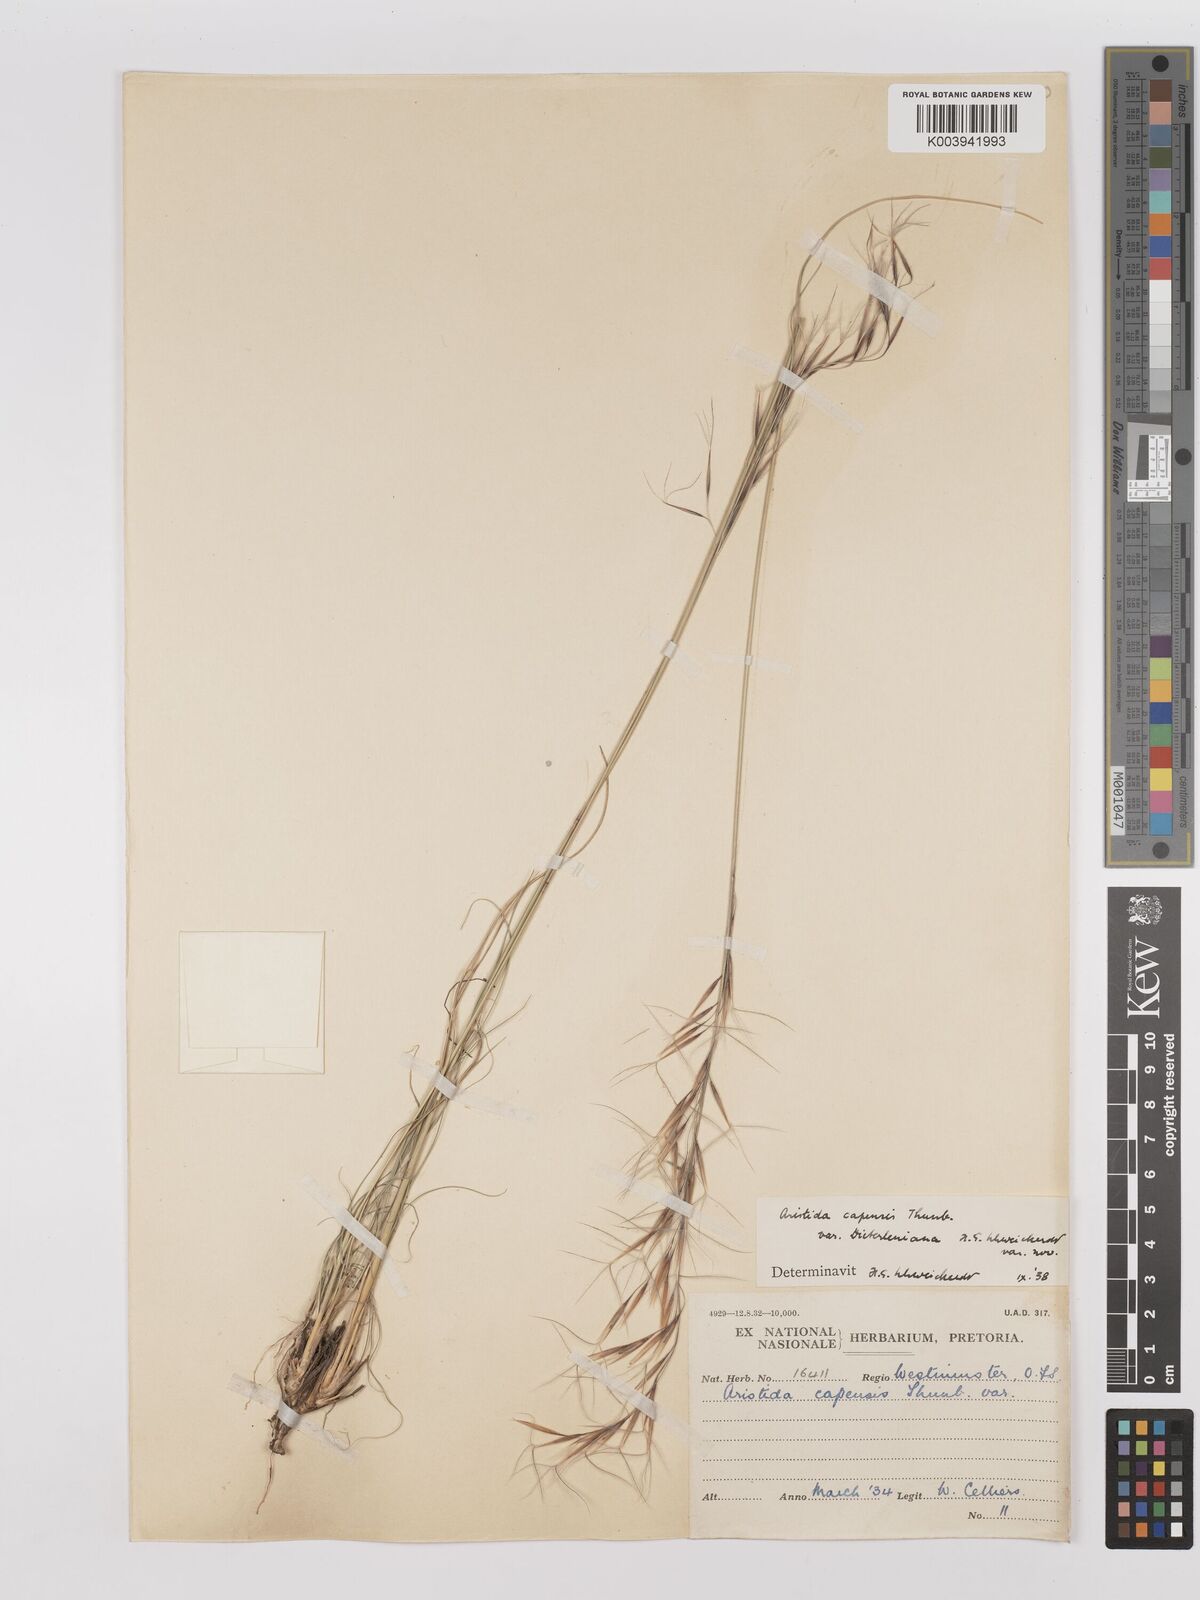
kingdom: Plantae
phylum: Tracheophyta
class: Liliopsida
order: Poales
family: Poaceae
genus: Stipagrostis
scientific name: Stipagrostis zeyheri
